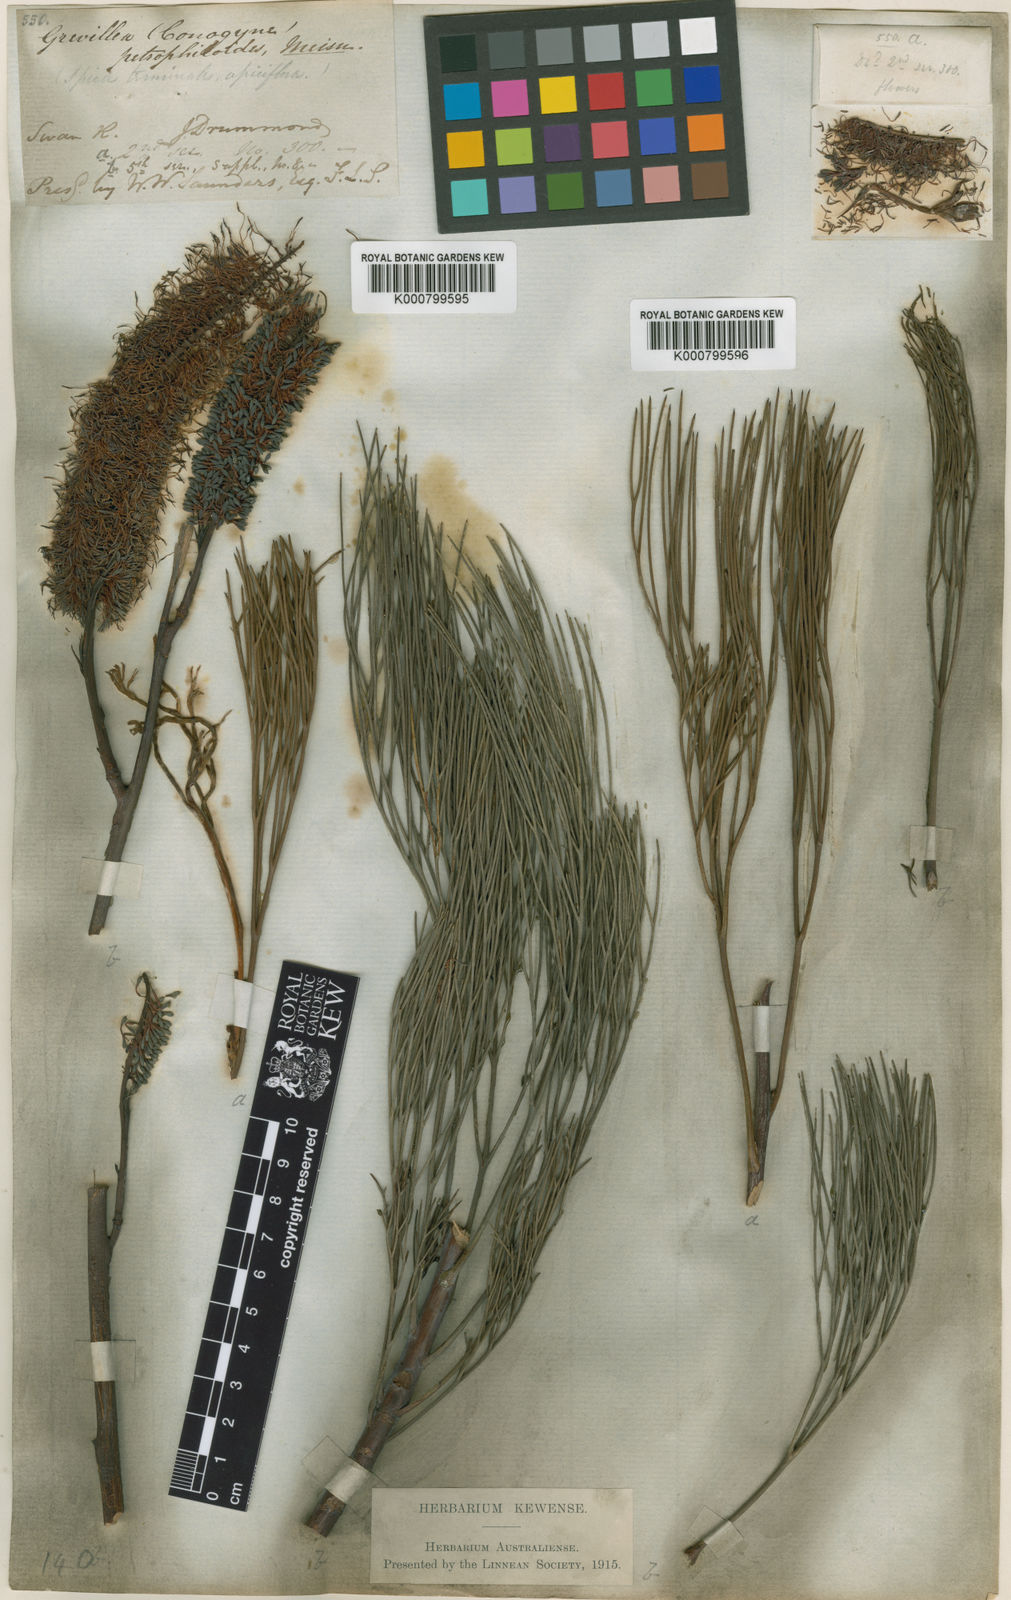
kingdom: Plantae
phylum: Tracheophyta
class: Magnoliopsida
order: Proteales
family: Proteaceae
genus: Grevillea
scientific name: Grevillea petrophiloides
